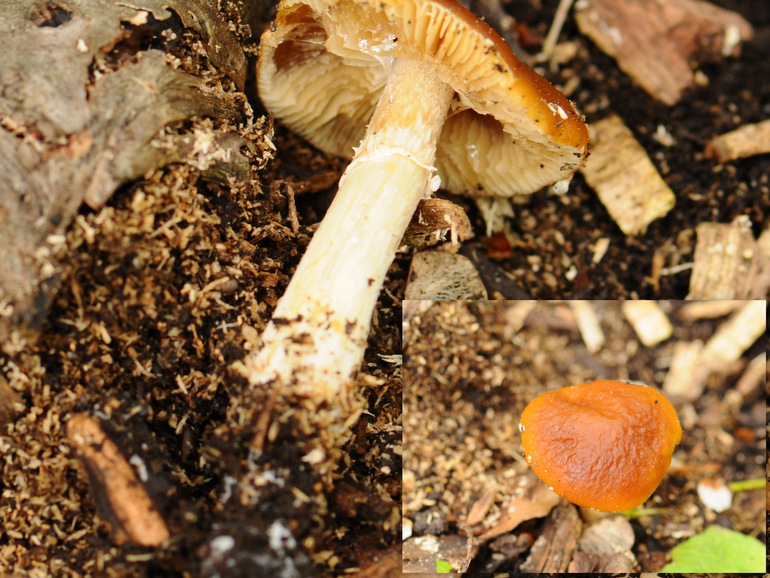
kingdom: Fungi
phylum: Basidiomycota
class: Agaricomycetes
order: Agaricales
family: Bolbitiaceae
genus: Conocybe
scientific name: Conocybe aporos
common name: tidlig dansehat
